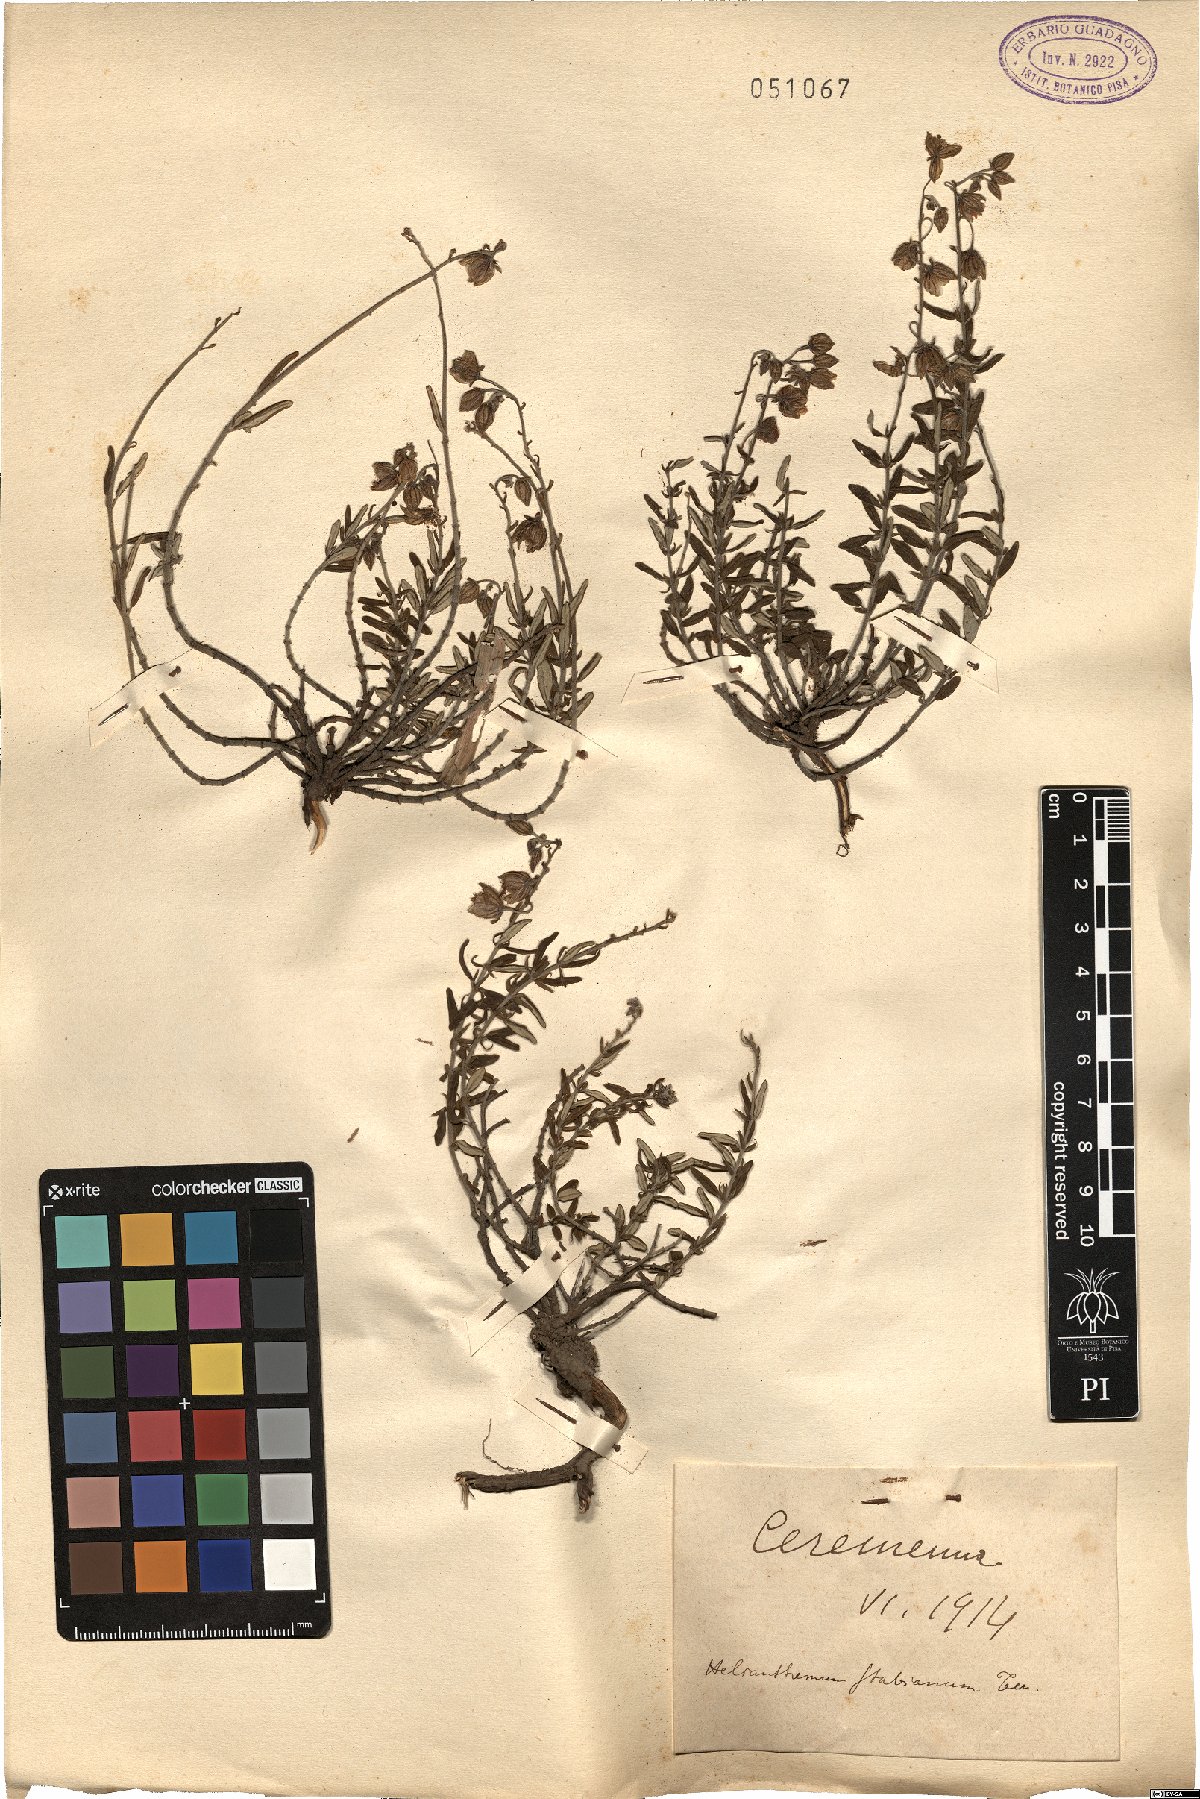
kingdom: Plantae
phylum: Tracheophyta
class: Magnoliopsida
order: Malvales
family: Cistaceae
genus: Helianthemum
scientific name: Helianthemum croceum
